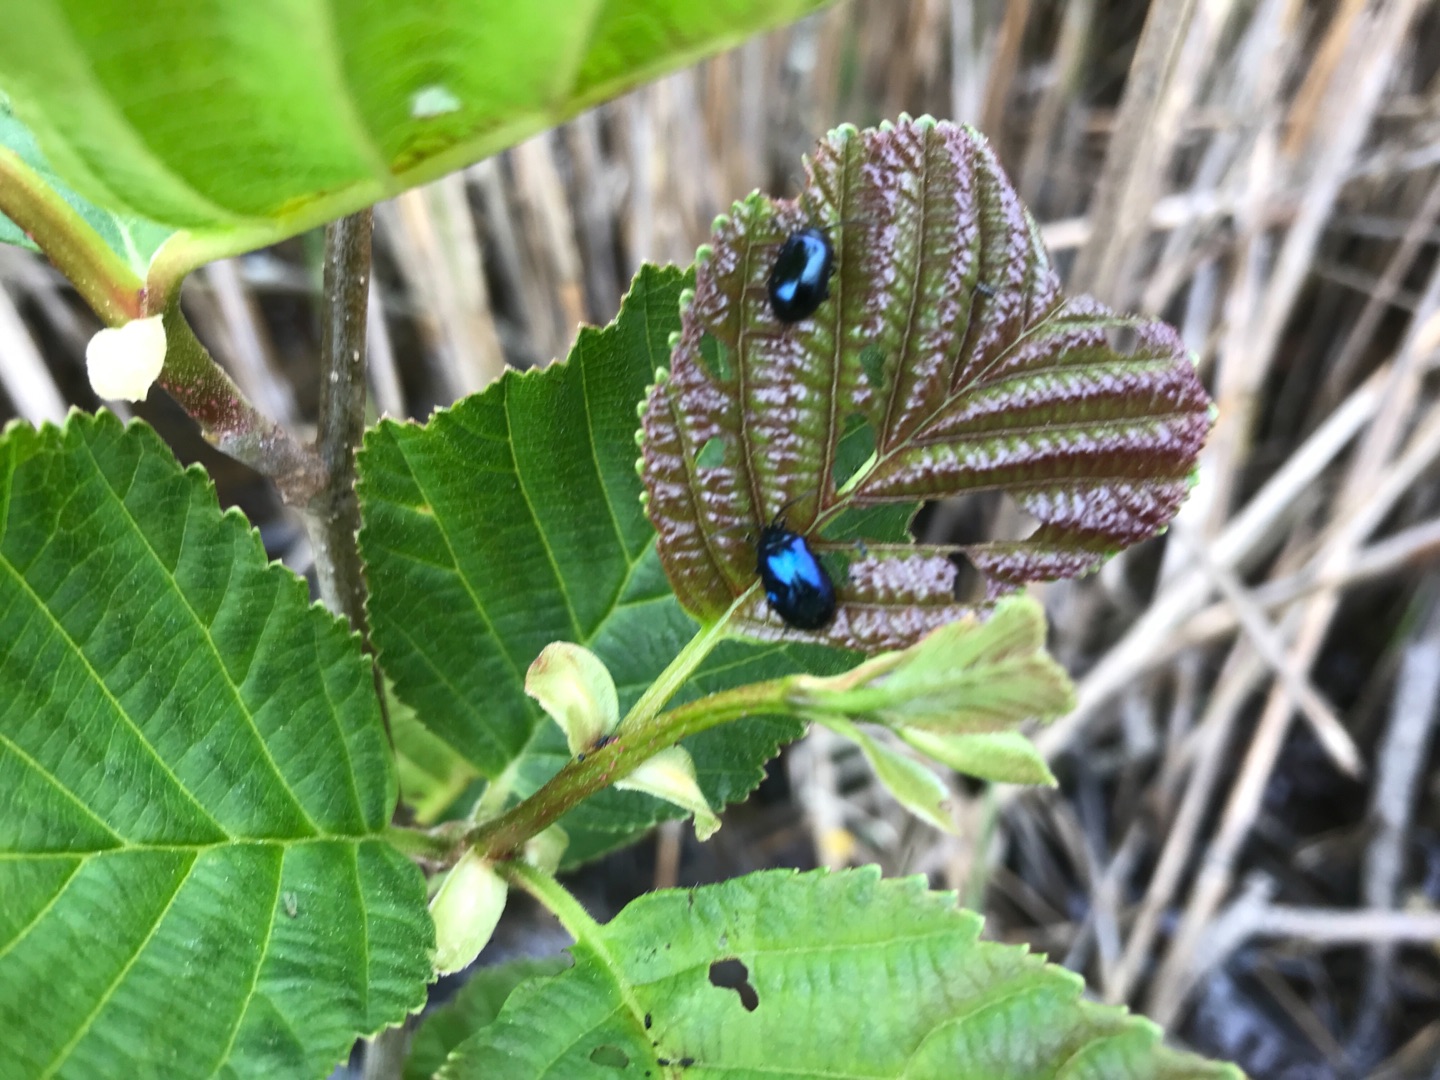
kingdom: Animalia
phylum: Arthropoda
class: Insecta
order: Coleoptera
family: Chrysomelidae
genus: Agelastica
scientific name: Agelastica alni
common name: Ellebladbille
